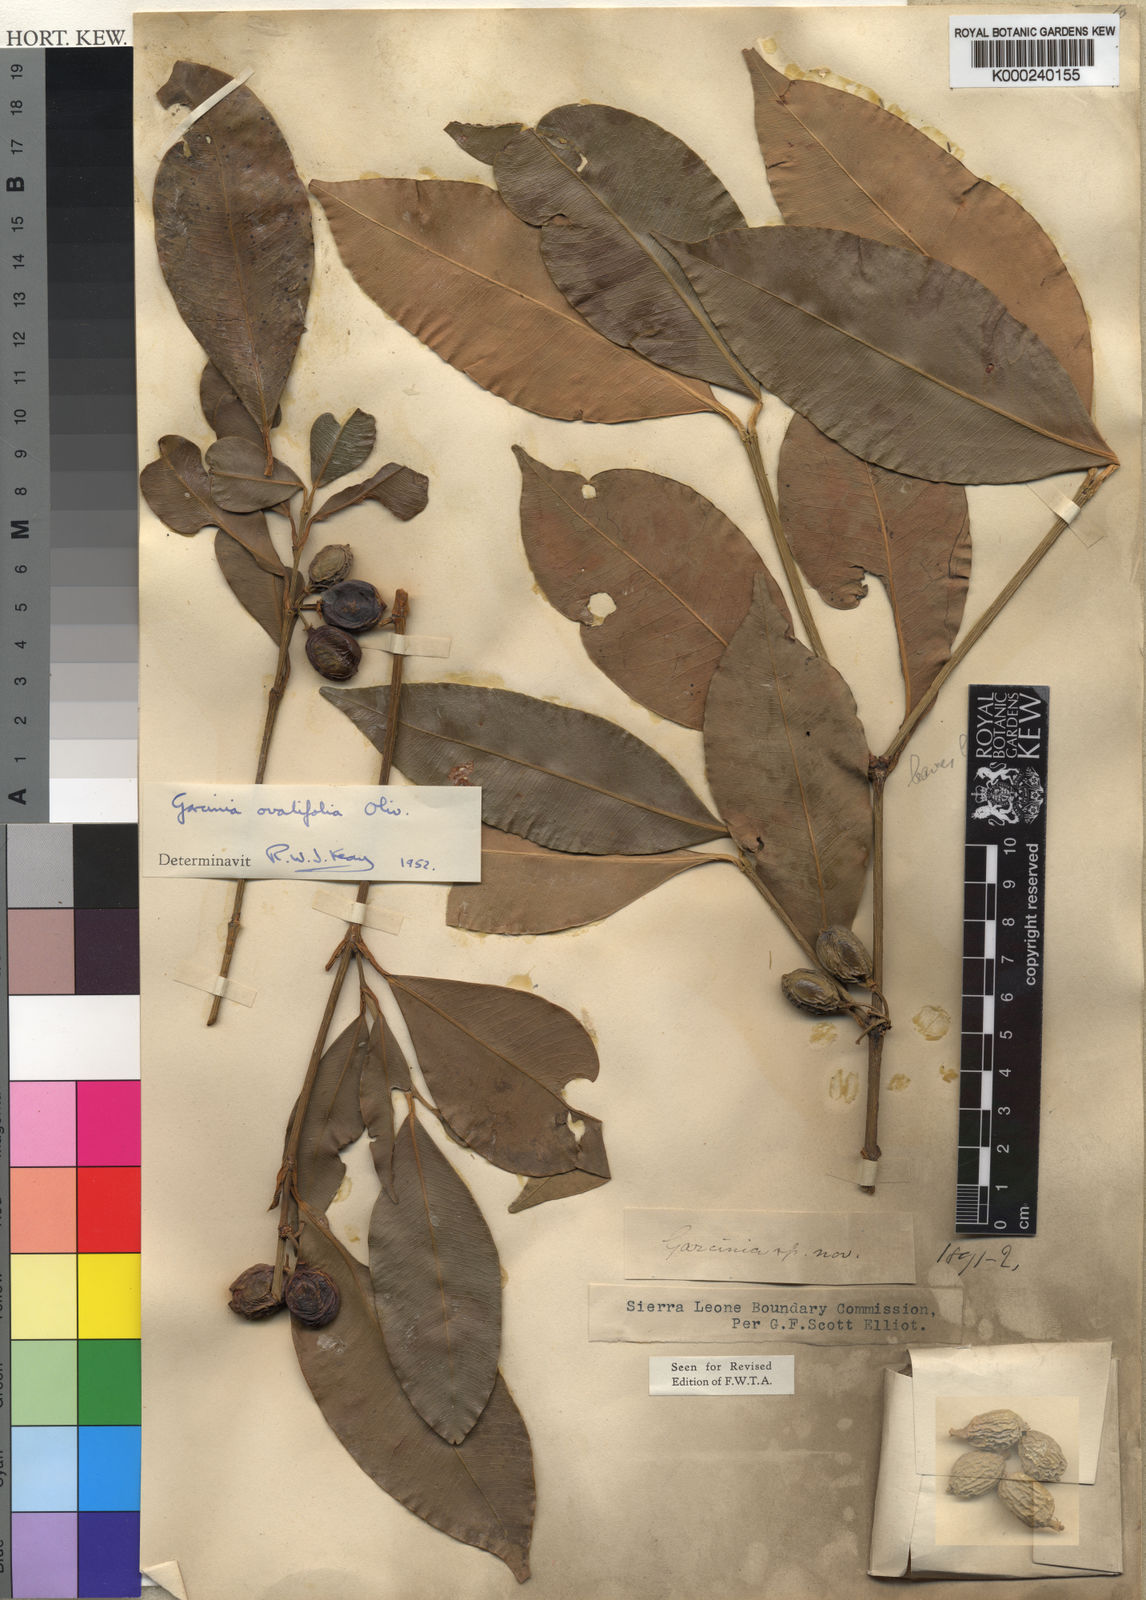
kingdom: Plantae
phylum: Tracheophyta
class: Magnoliopsida
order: Malpighiales
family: Clusiaceae
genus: Garcinia
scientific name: Garcinia ovalifolia
